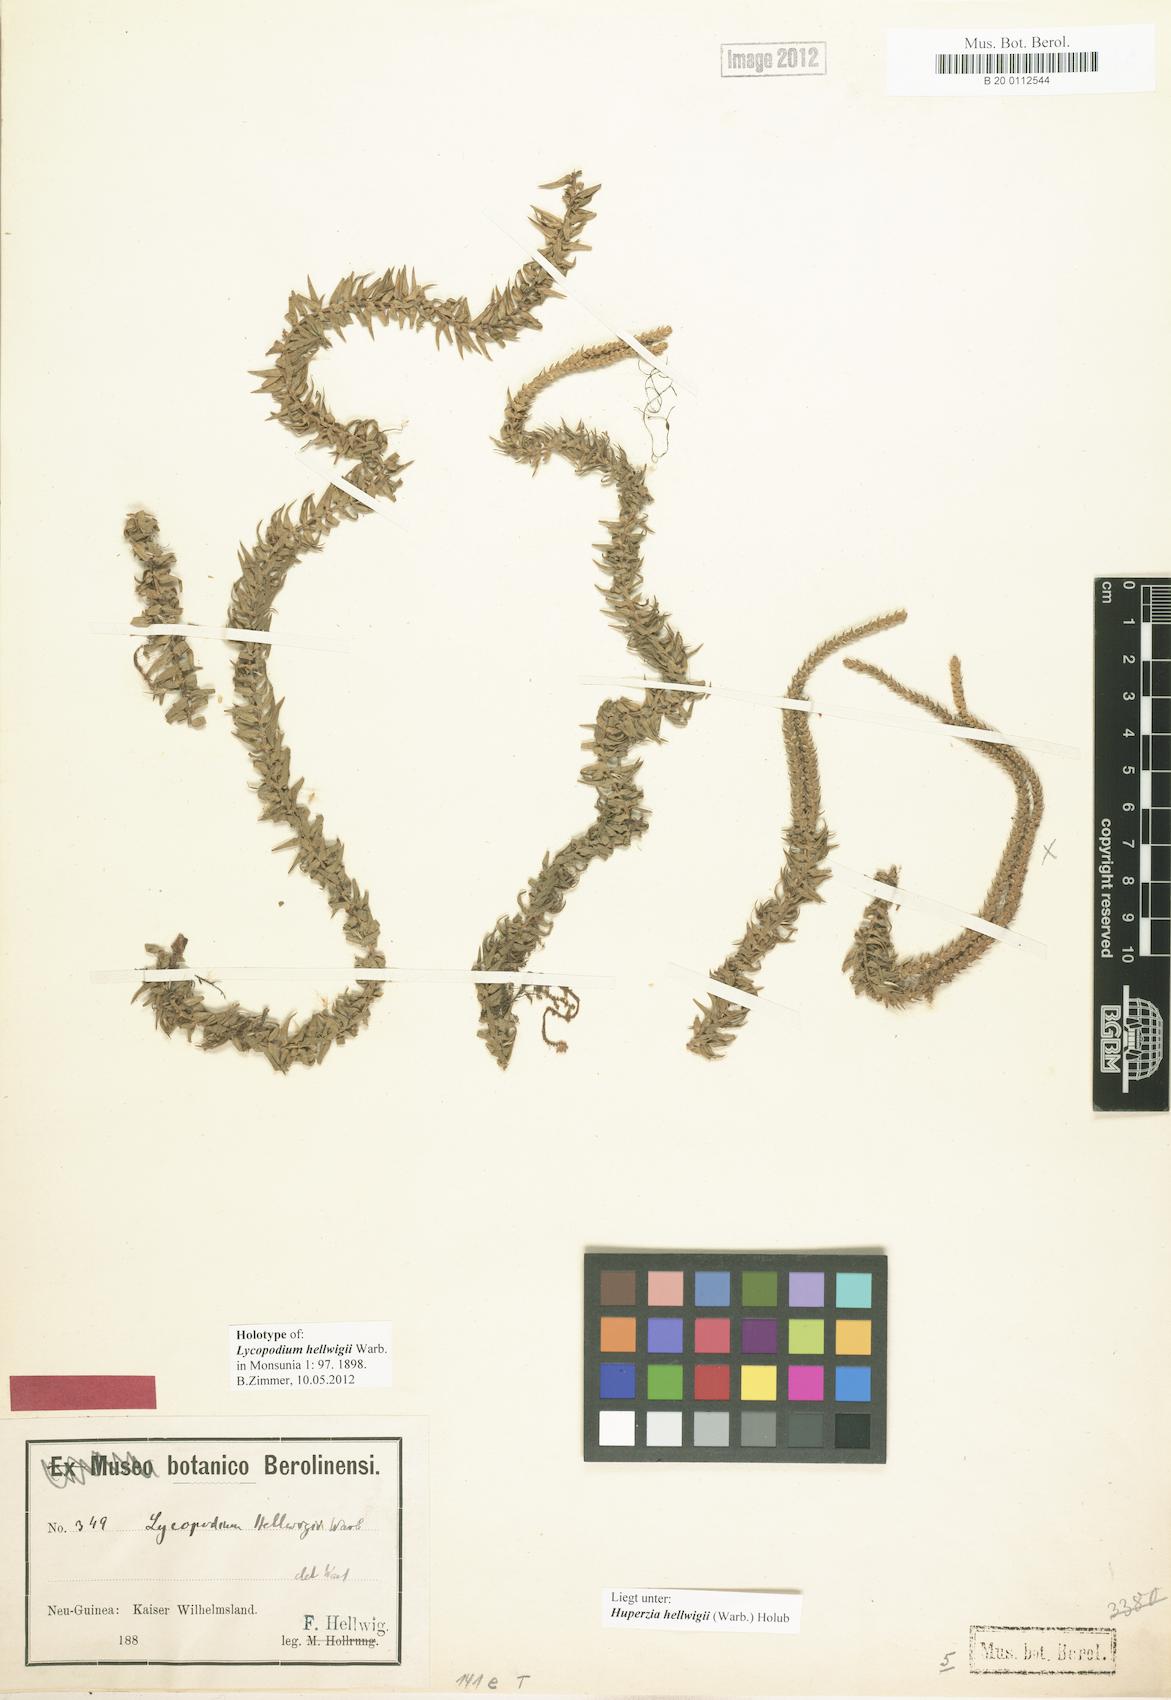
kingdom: Plantae
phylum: Tracheophyta
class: Lycopodiopsida
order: Lycopodiales
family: Lycopodiaceae
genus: Phlegmariurus
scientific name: Phlegmariurus hellwigii
